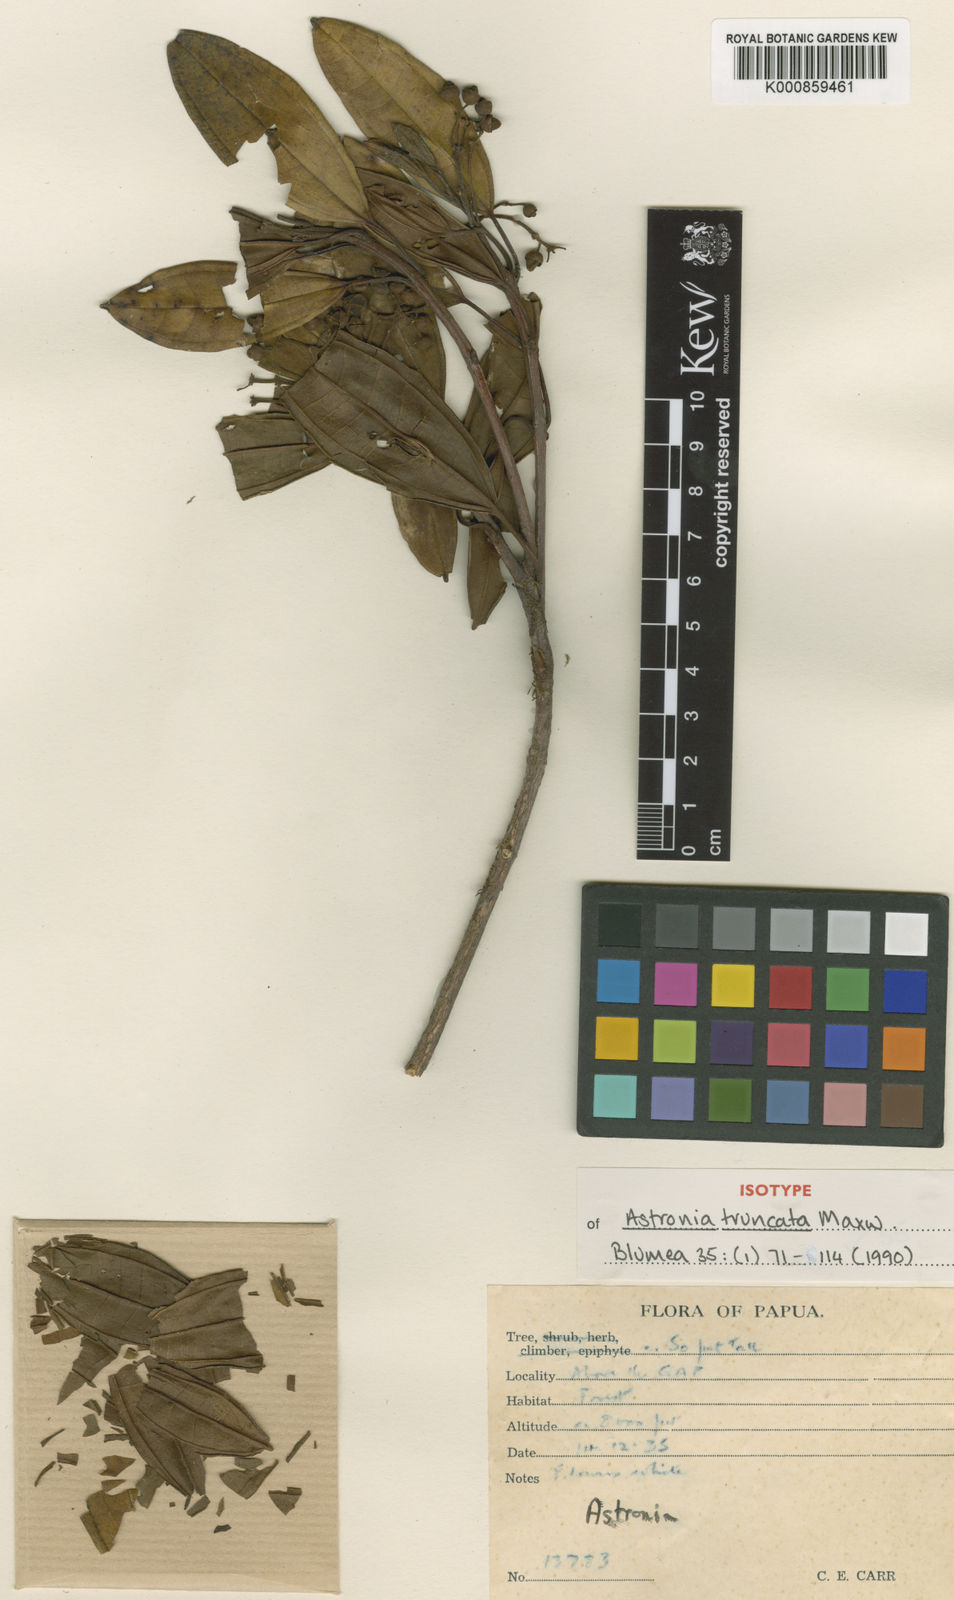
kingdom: Plantae
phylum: Tracheophyta
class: Magnoliopsida
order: Myrtales
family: Melastomataceae
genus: Astronia
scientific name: Astronia truncata
